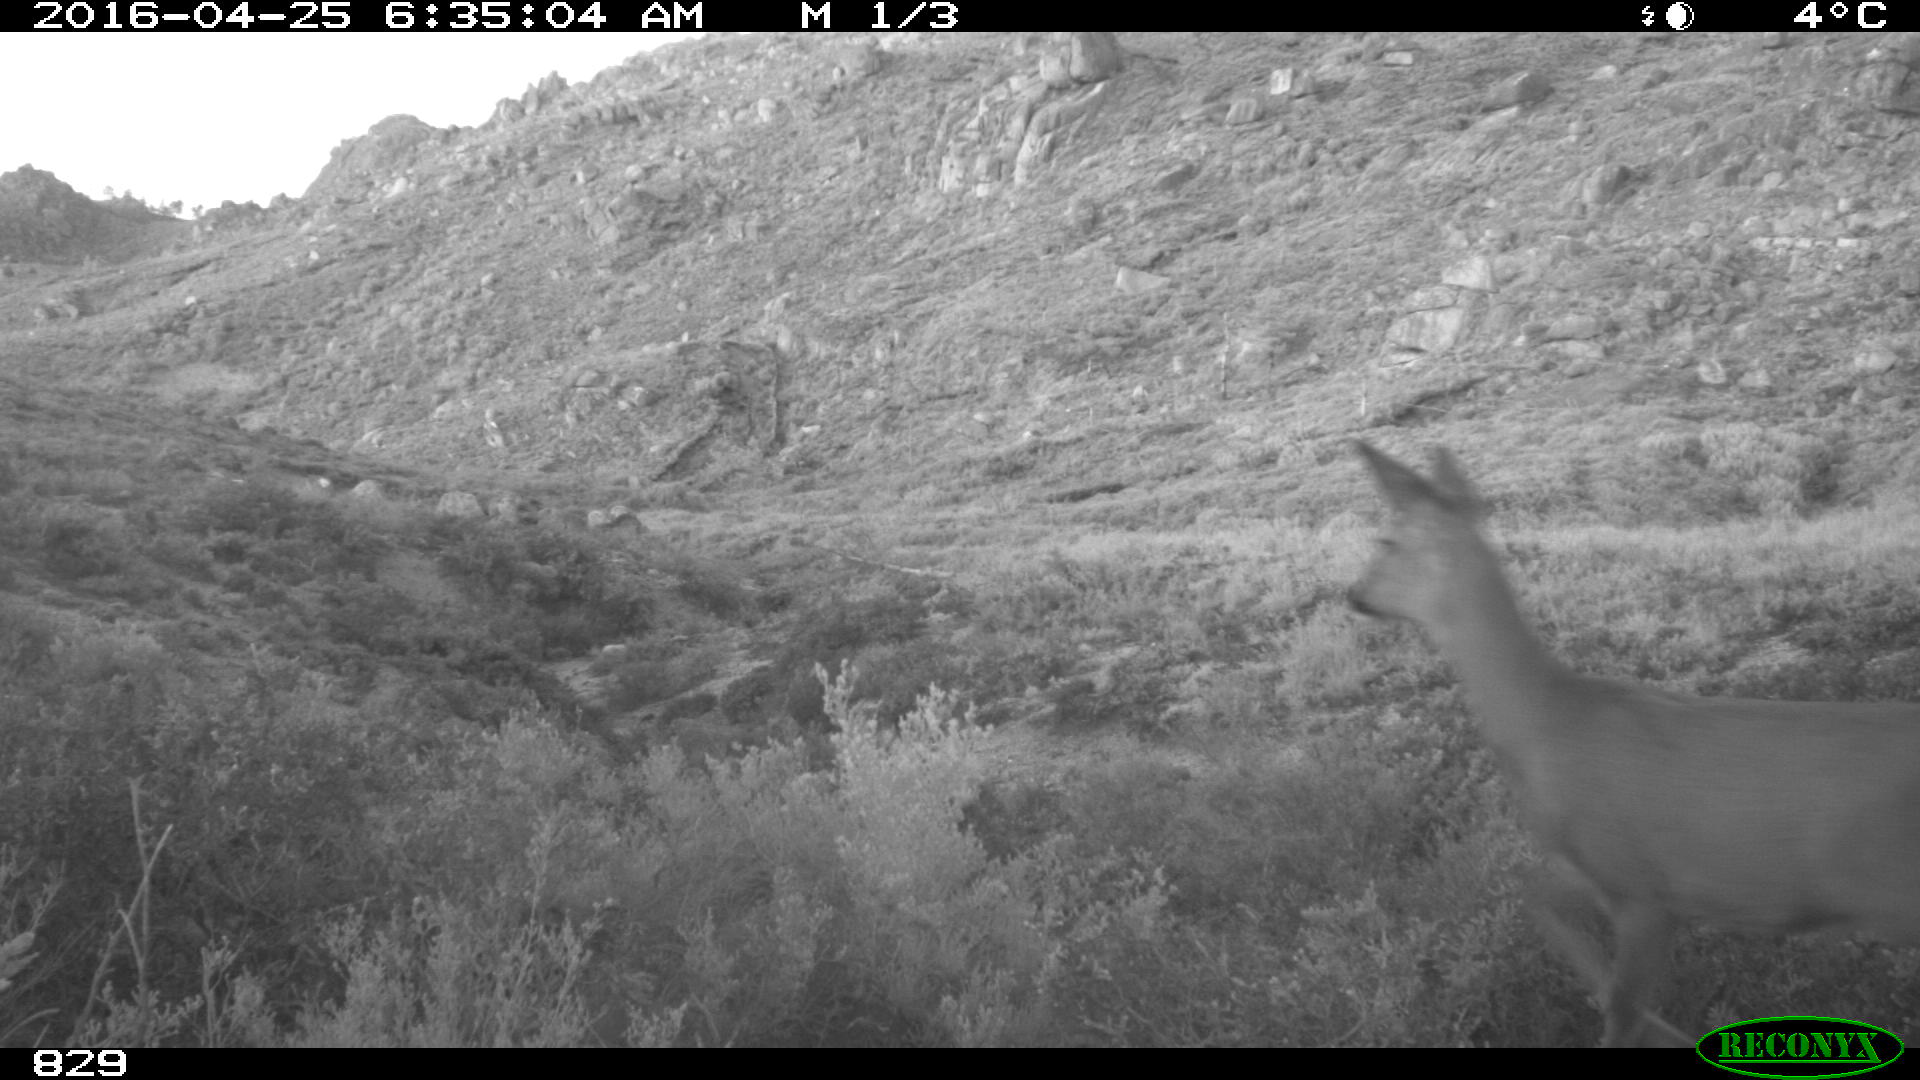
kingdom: Animalia
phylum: Chordata
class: Mammalia
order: Artiodactyla
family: Cervidae
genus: Capreolus
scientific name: Capreolus capreolus
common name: Western roe deer
